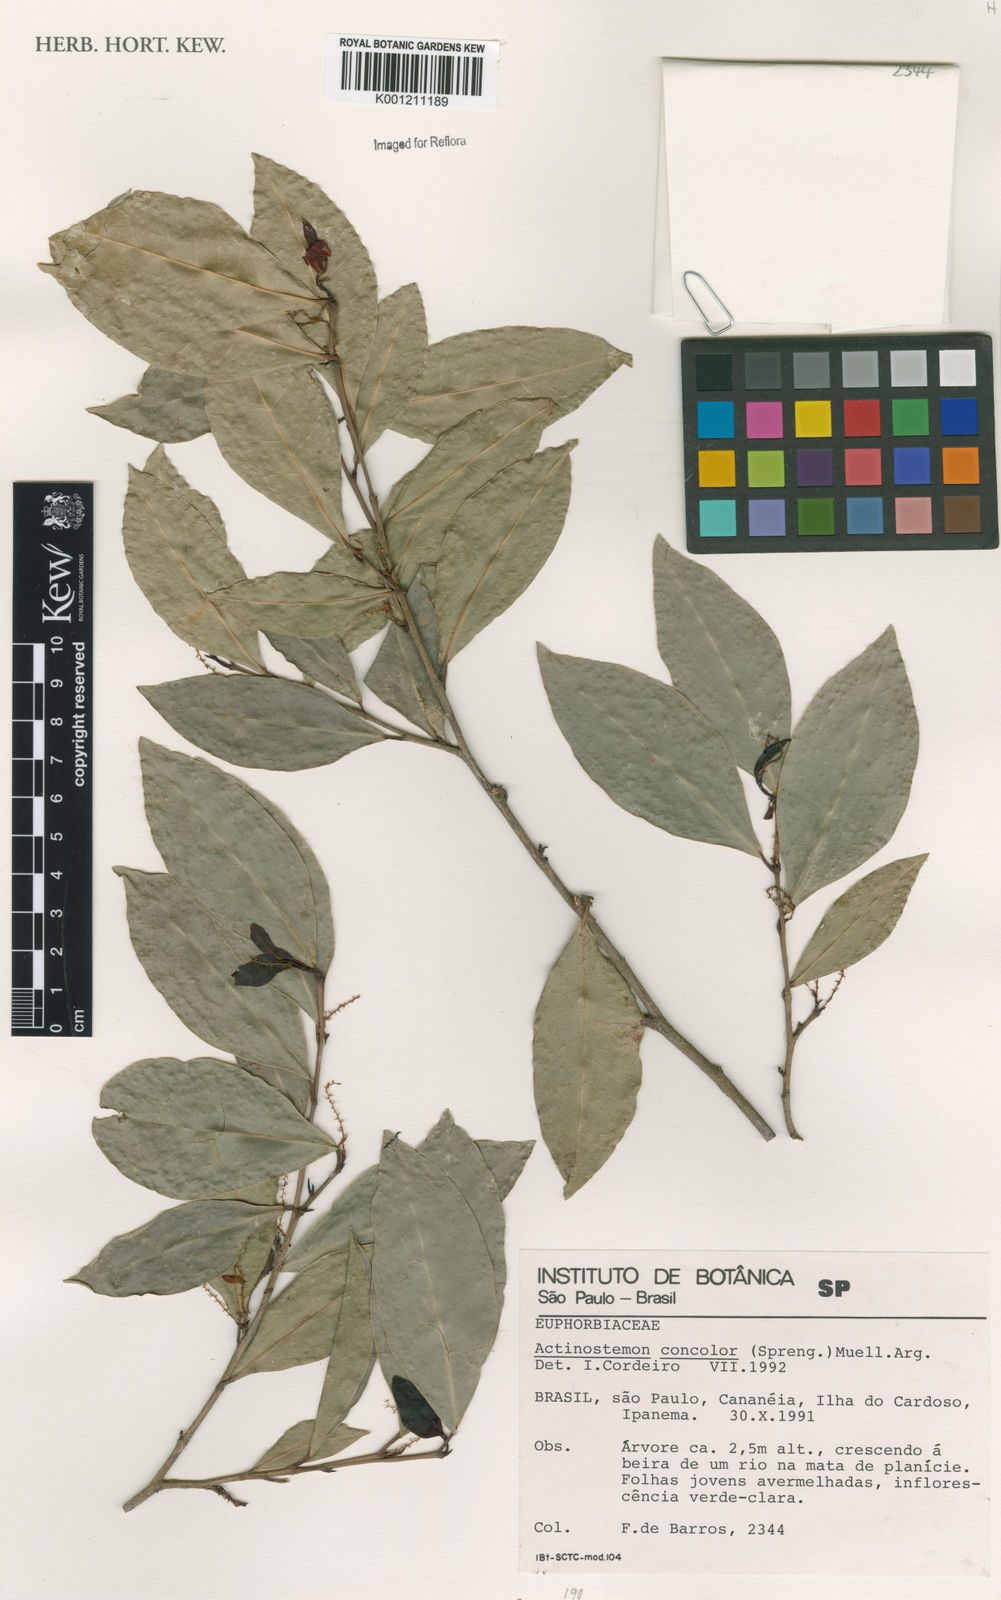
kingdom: Plantae
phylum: Tracheophyta
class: Magnoliopsida
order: Malpighiales
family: Euphorbiaceae
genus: Actinostemon
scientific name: Actinostemon
